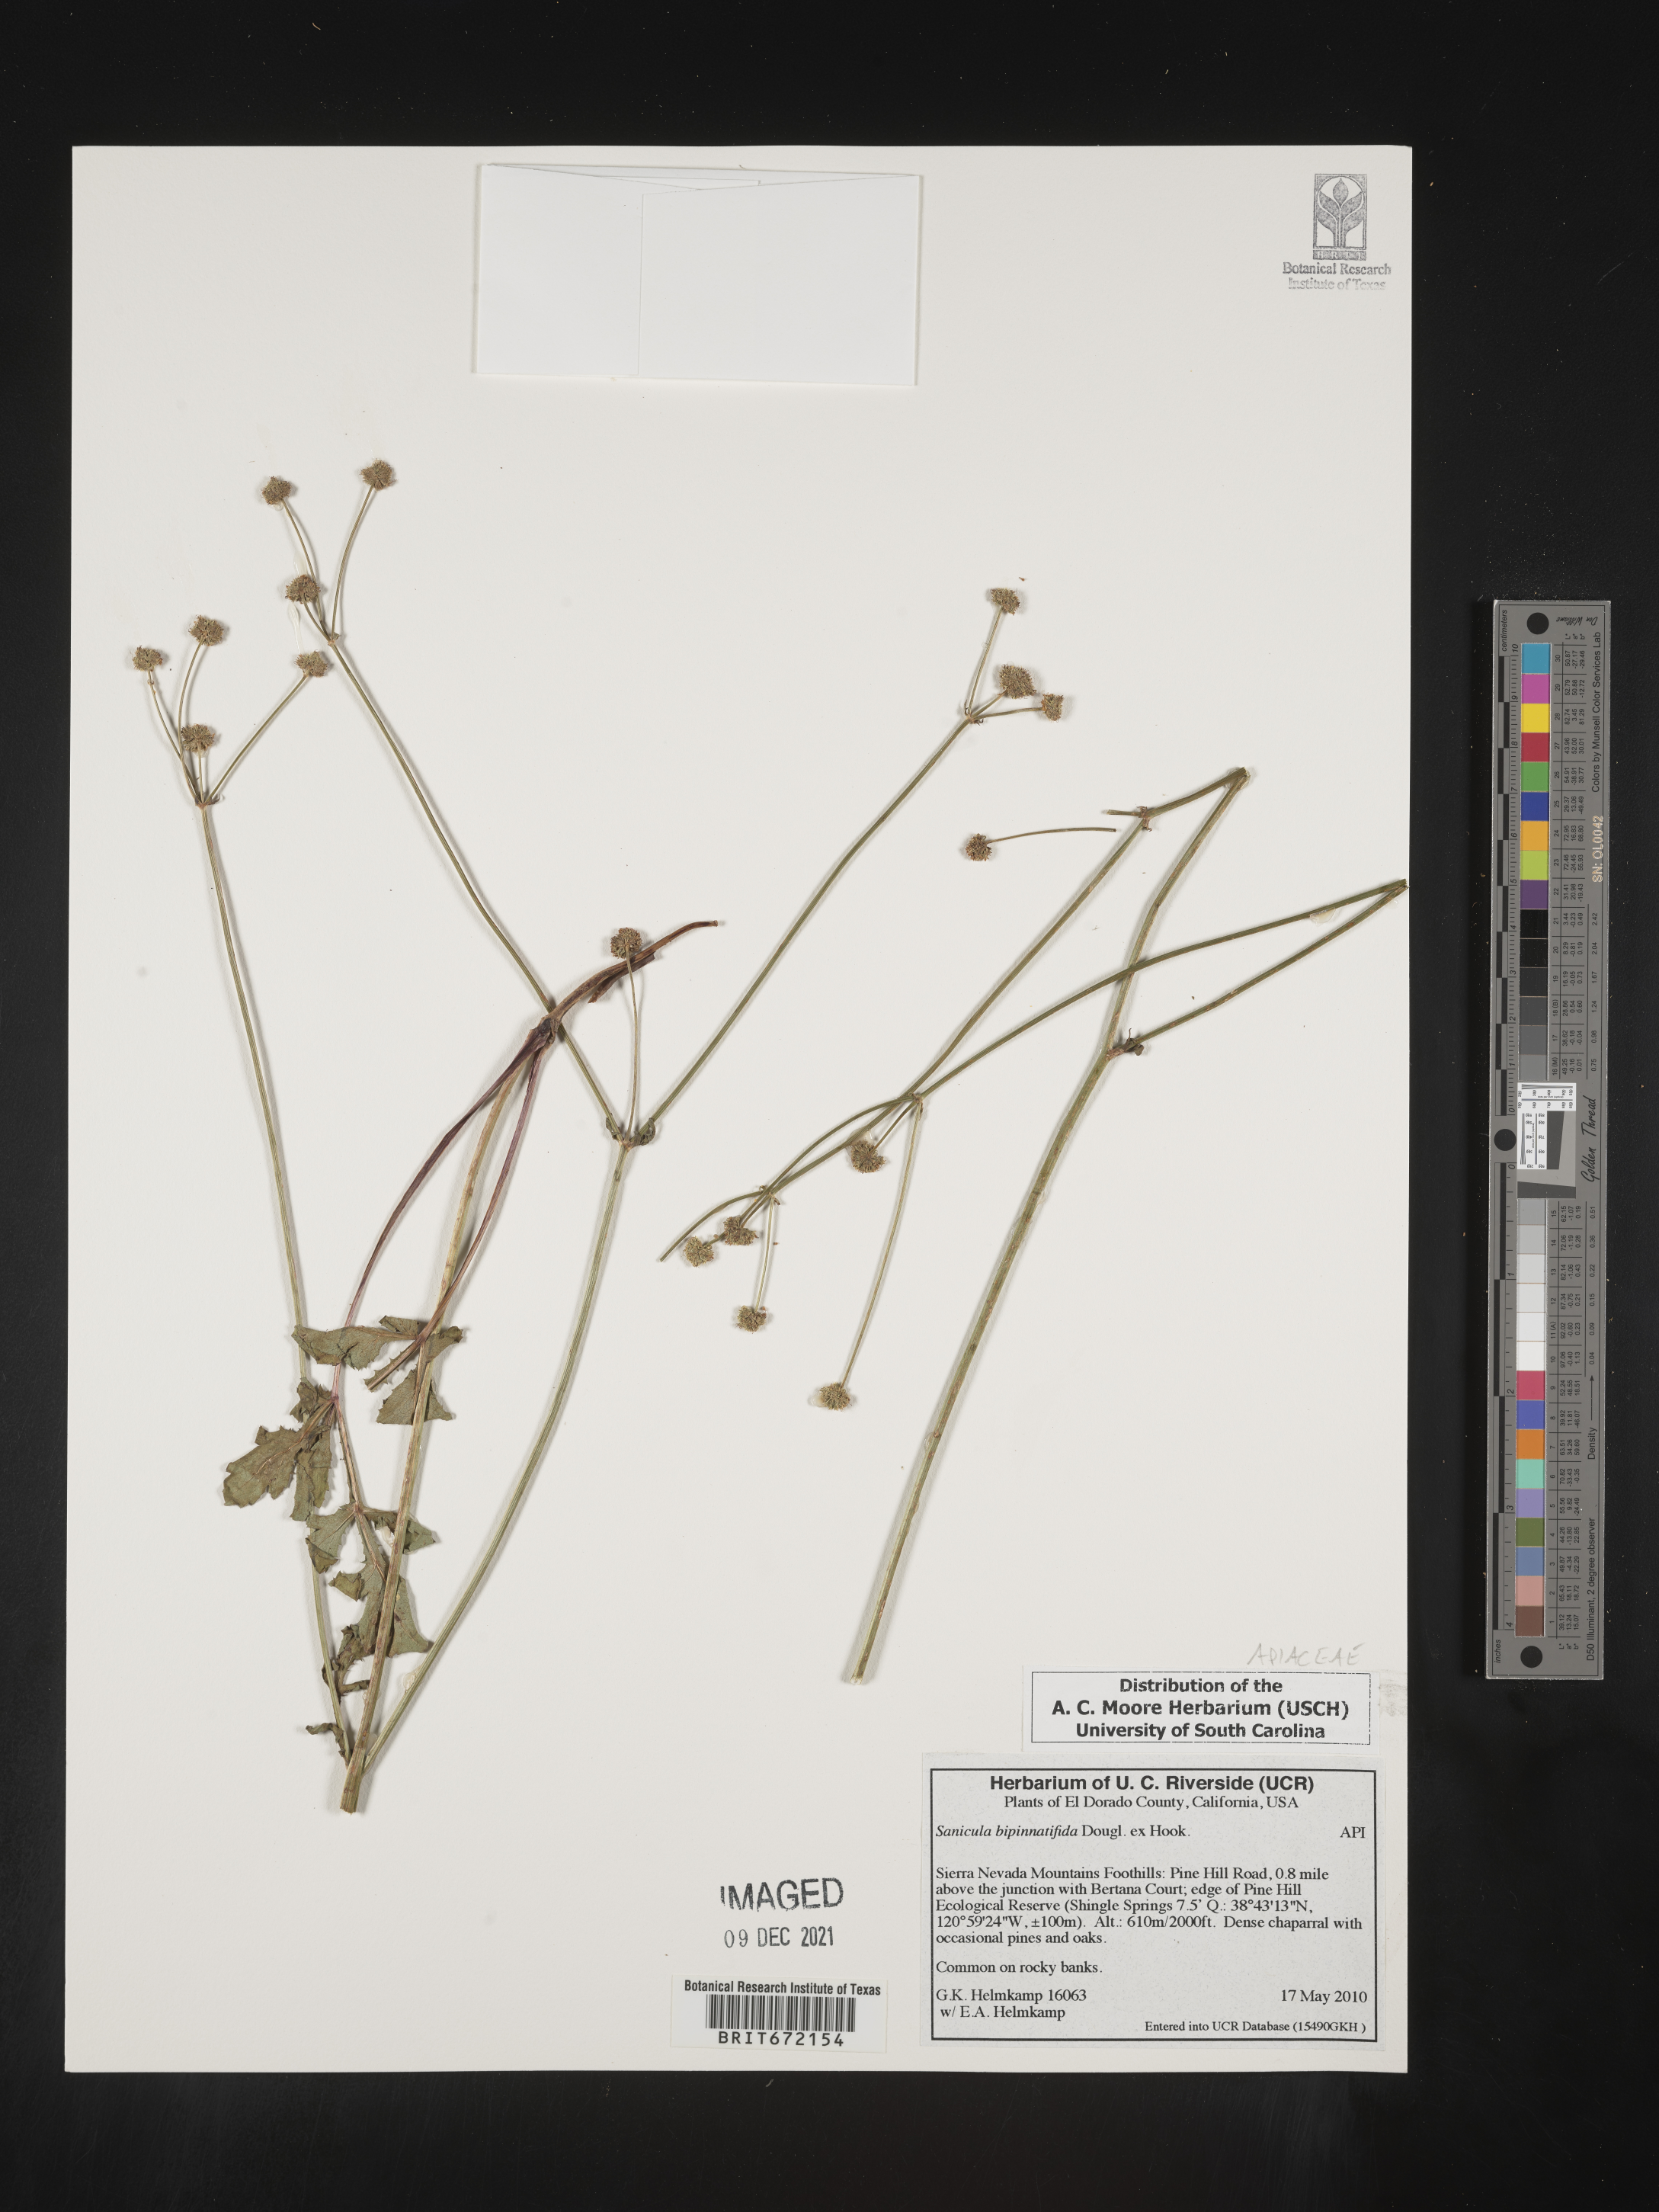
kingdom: Plantae
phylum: Tracheophyta
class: Magnoliopsida
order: Apiales
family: Apiaceae
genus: Sanicula
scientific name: Sanicula
